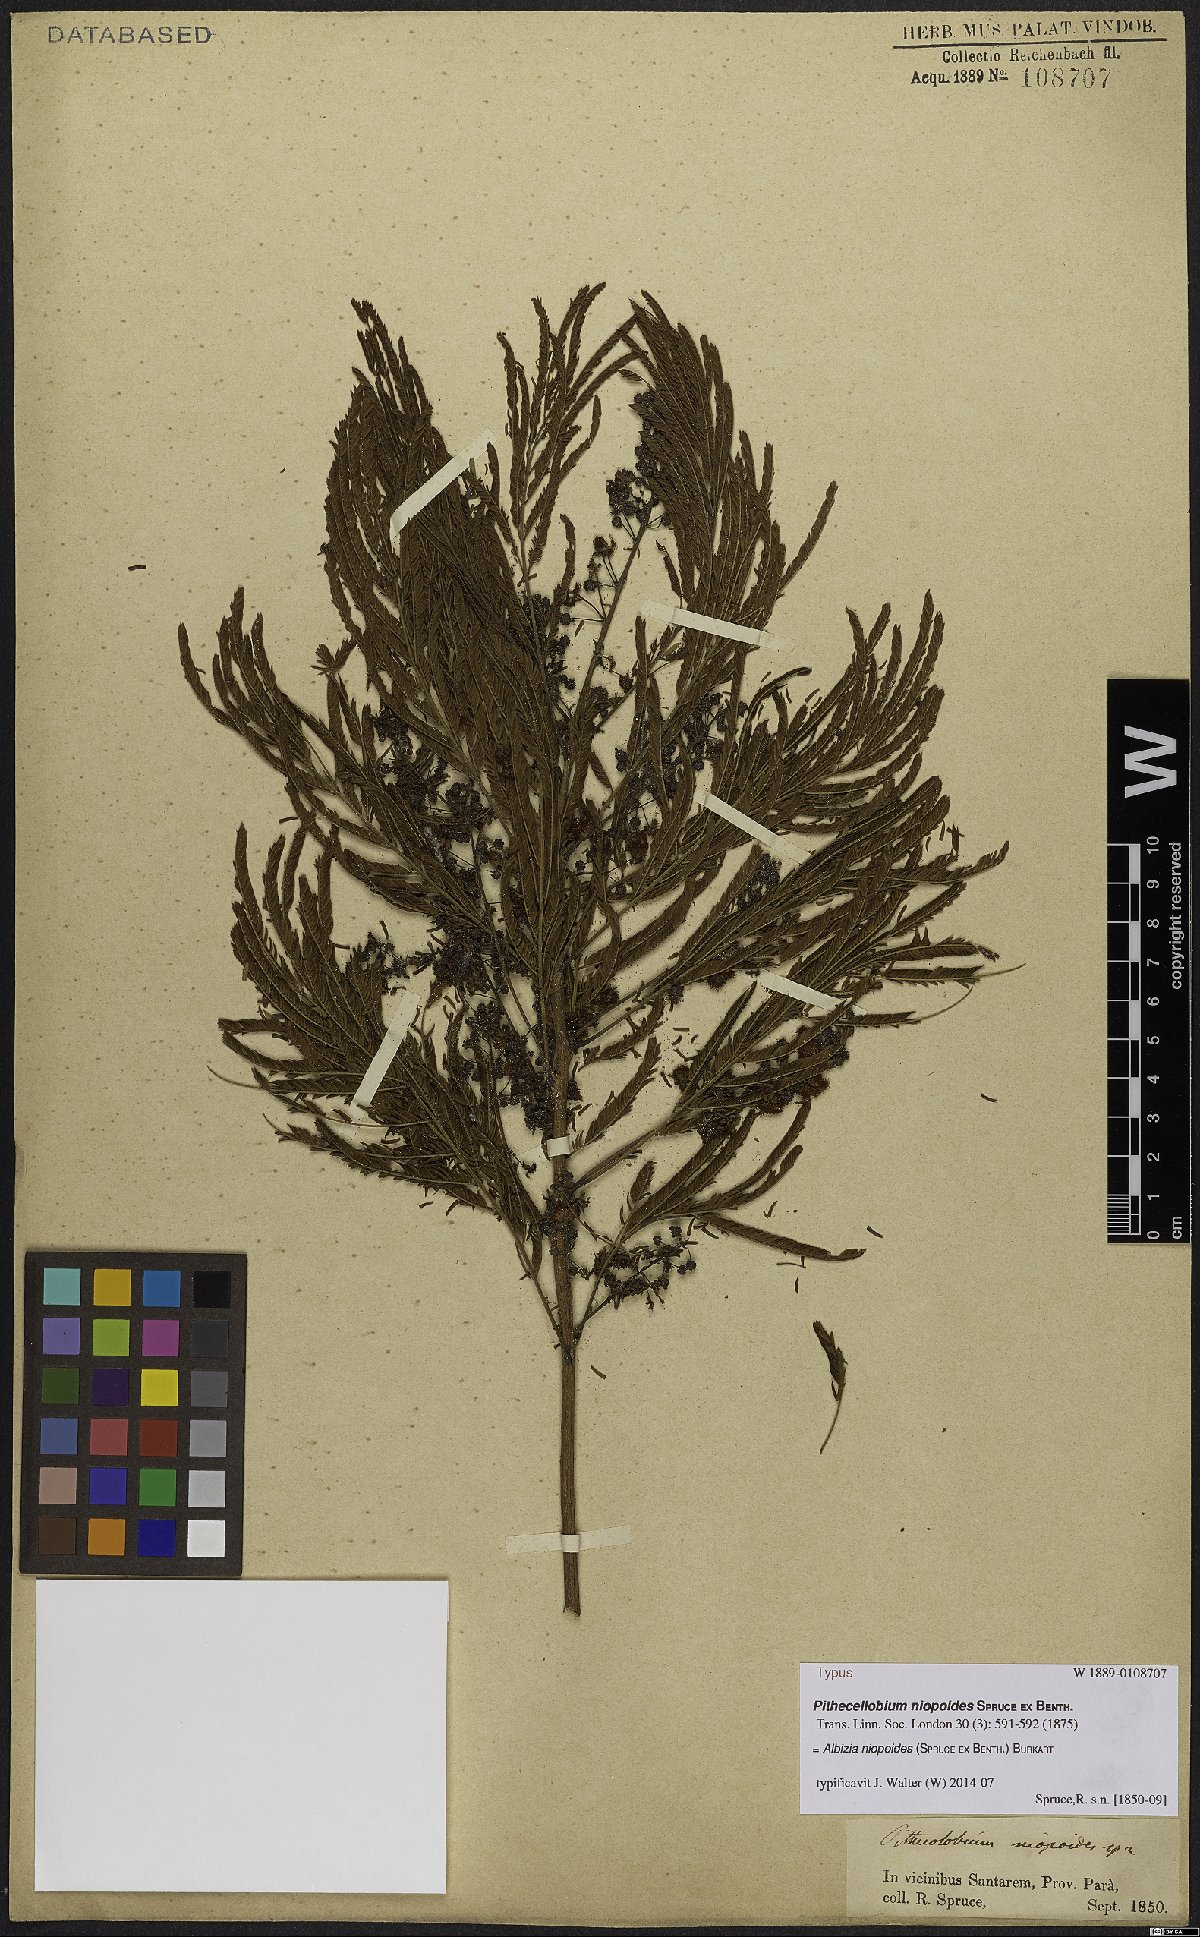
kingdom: Plantae
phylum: Tracheophyta
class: Magnoliopsida
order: Fabales
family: Fabaceae
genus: Albizia
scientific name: Albizia niopoides
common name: Silk tree
